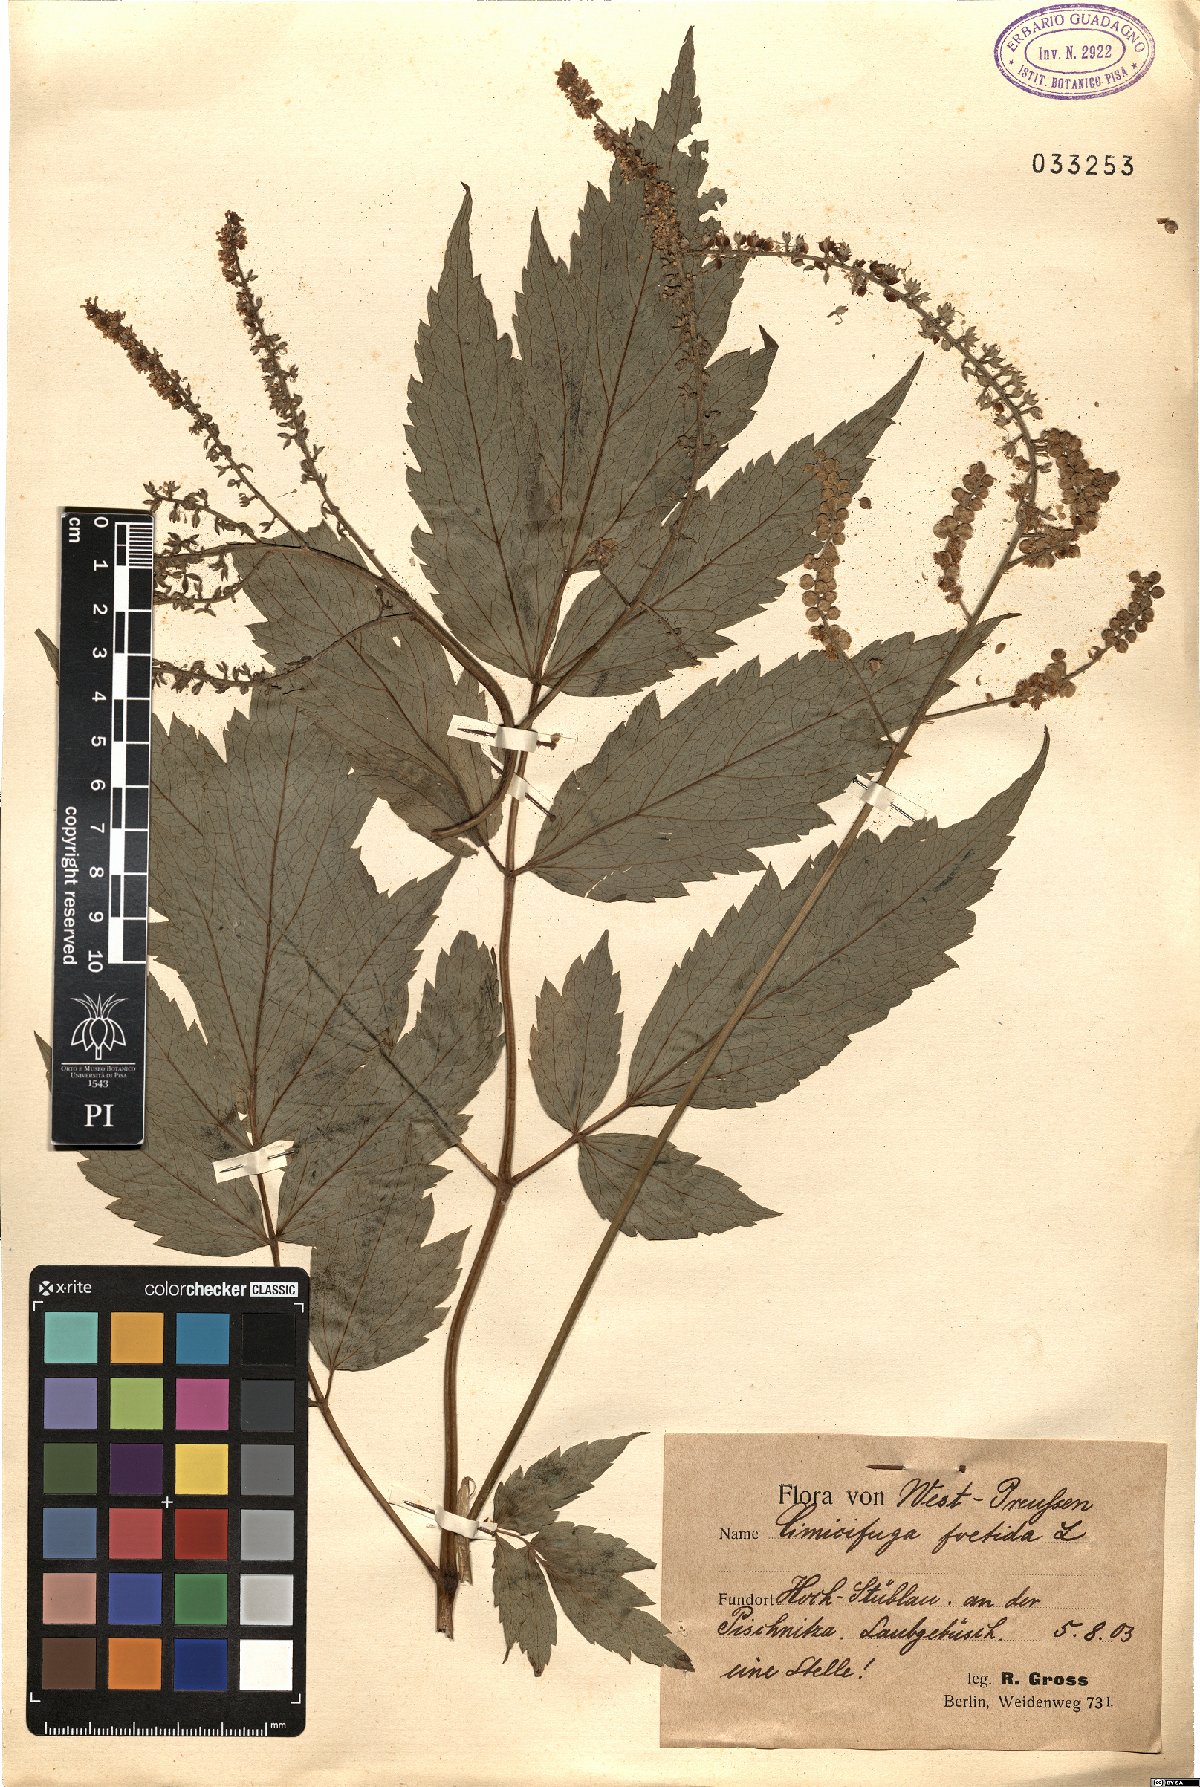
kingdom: Plantae
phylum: Tracheophyta
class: Magnoliopsida
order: Ranunculales
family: Ranunculaceae
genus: Actaea
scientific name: Actaea cimicifuga
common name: Chinese cimicifuga
